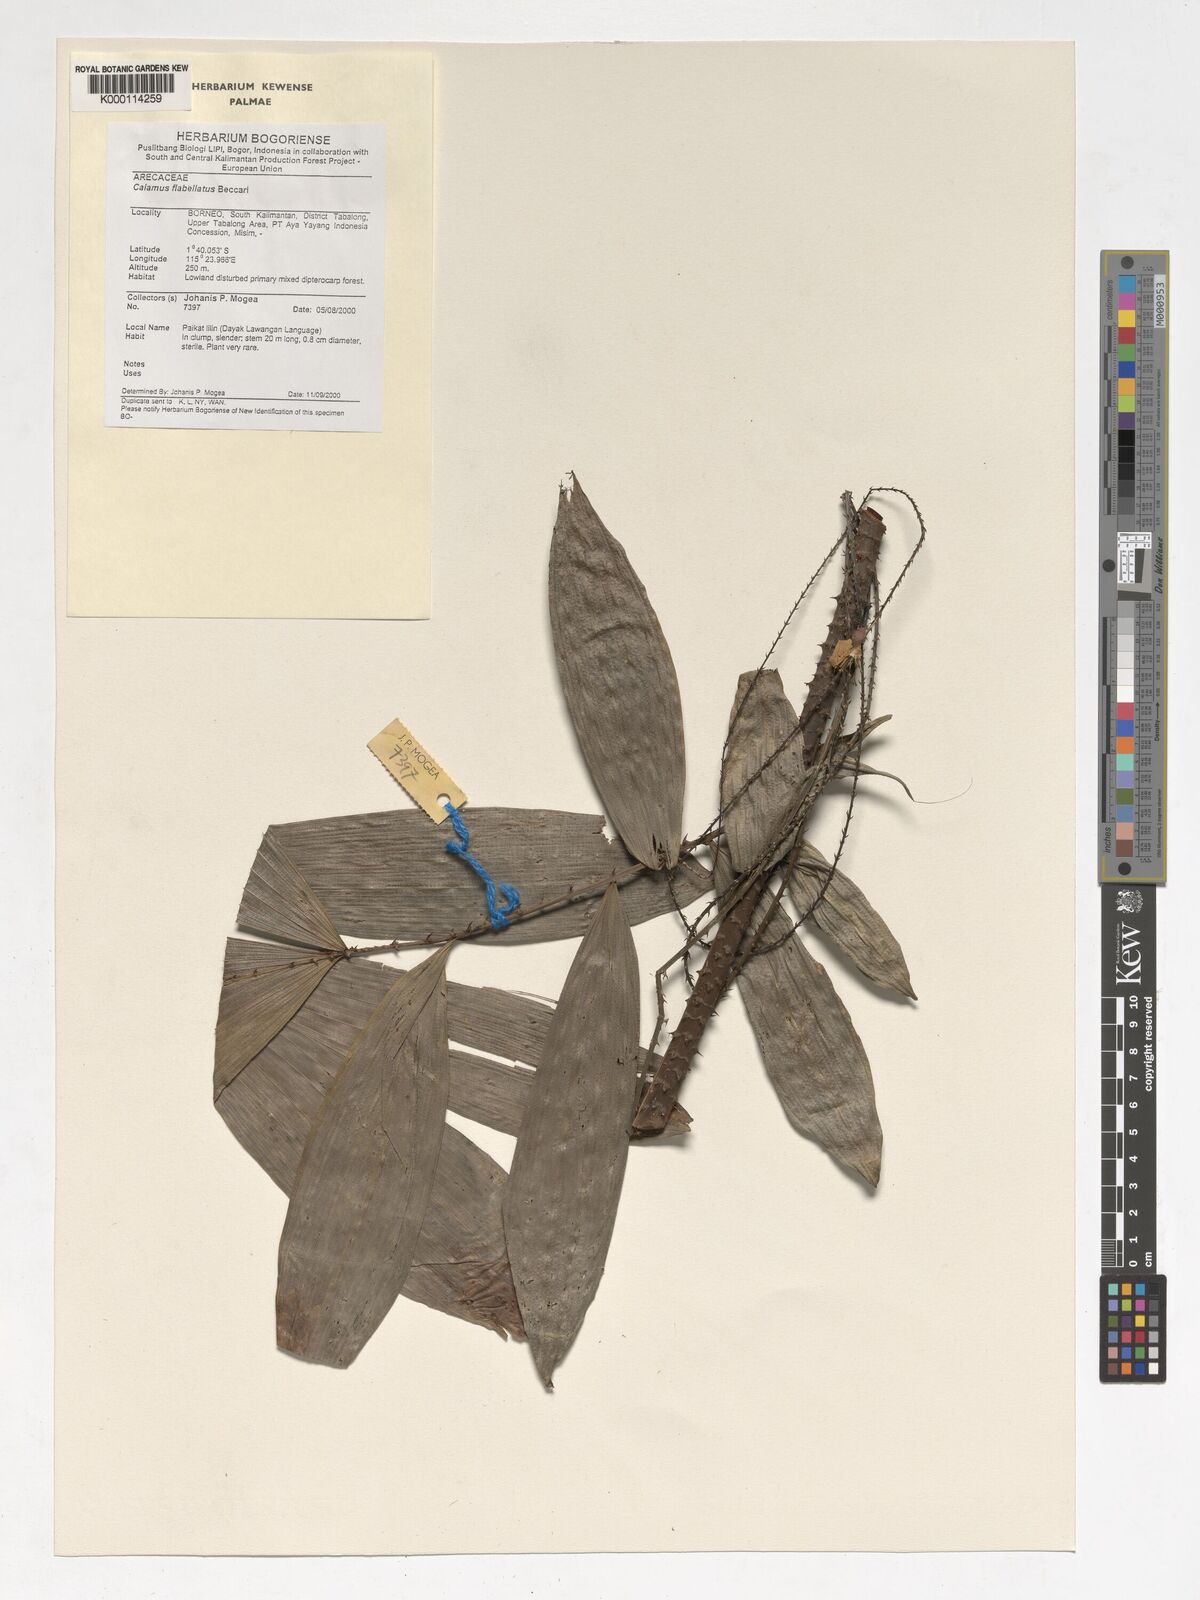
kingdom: Plantae
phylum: Tracheophyta
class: Liliopsida
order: Arecales
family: Arecaceae
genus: Calamus
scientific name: Calamus flabellatus
